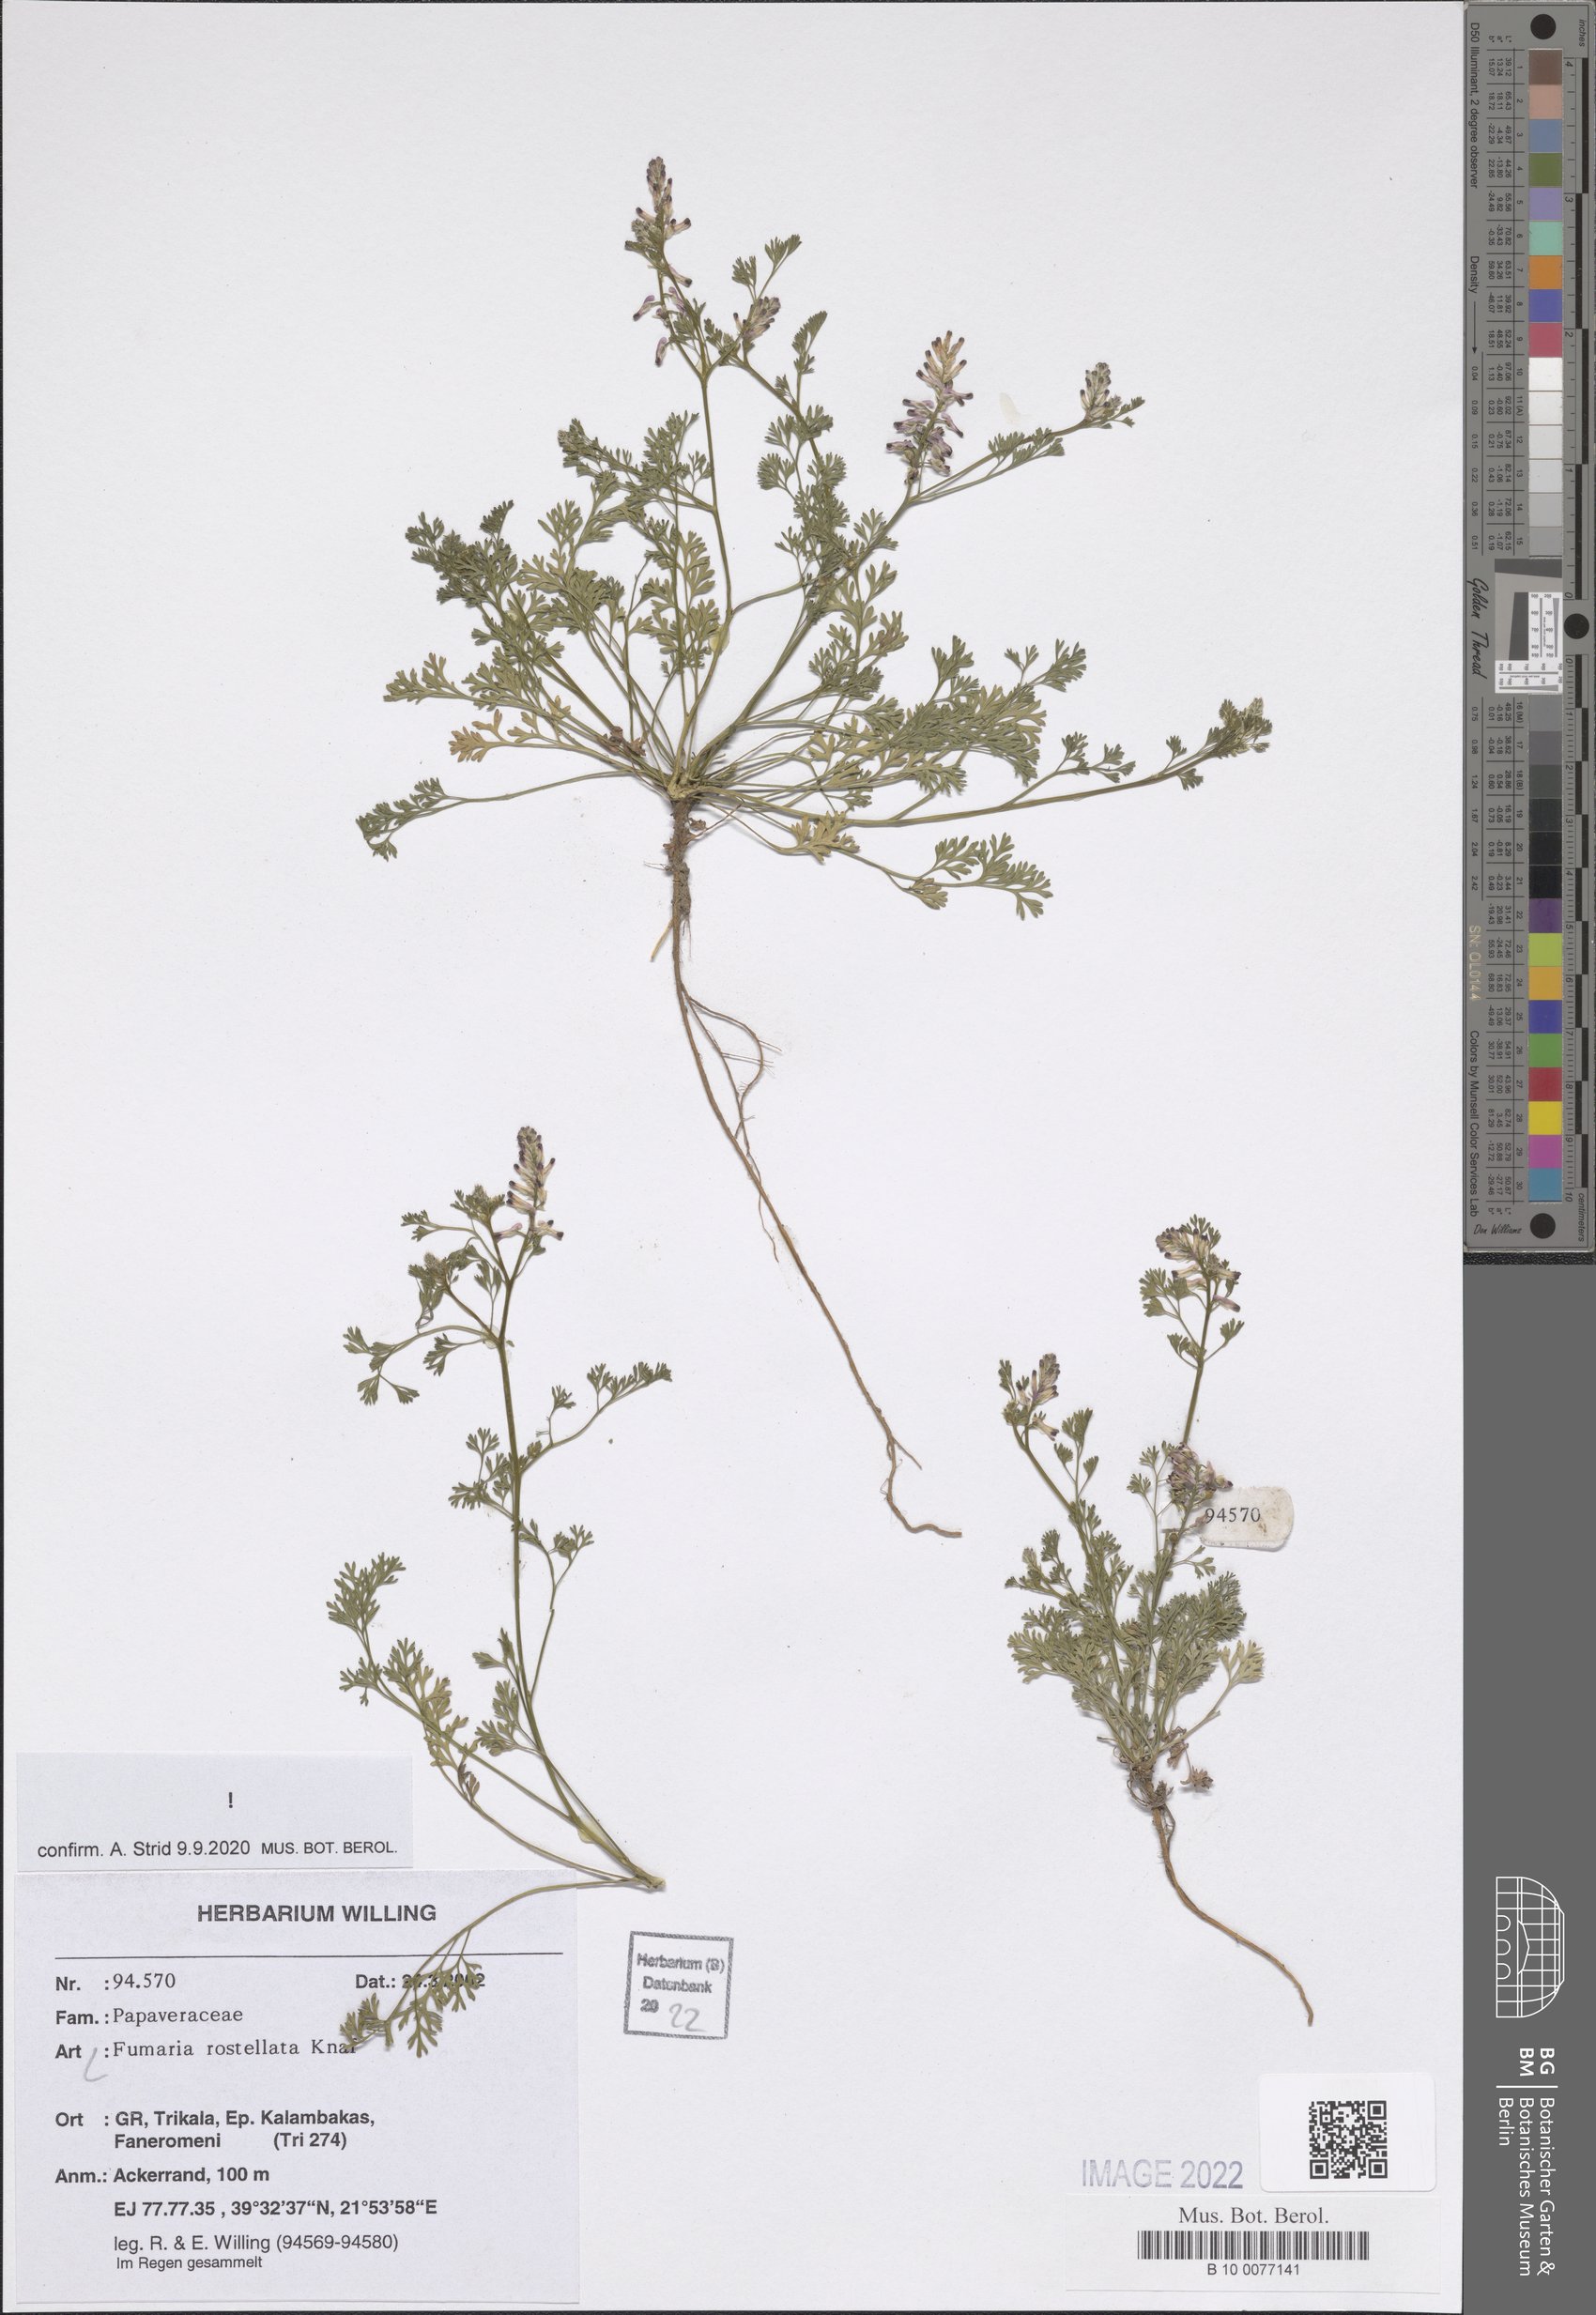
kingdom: Plantae
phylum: Tracheophyta
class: Magnoliopsida
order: Ranunculales
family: Papaveraceae
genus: Fumaria
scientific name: Fumaria rostellata
